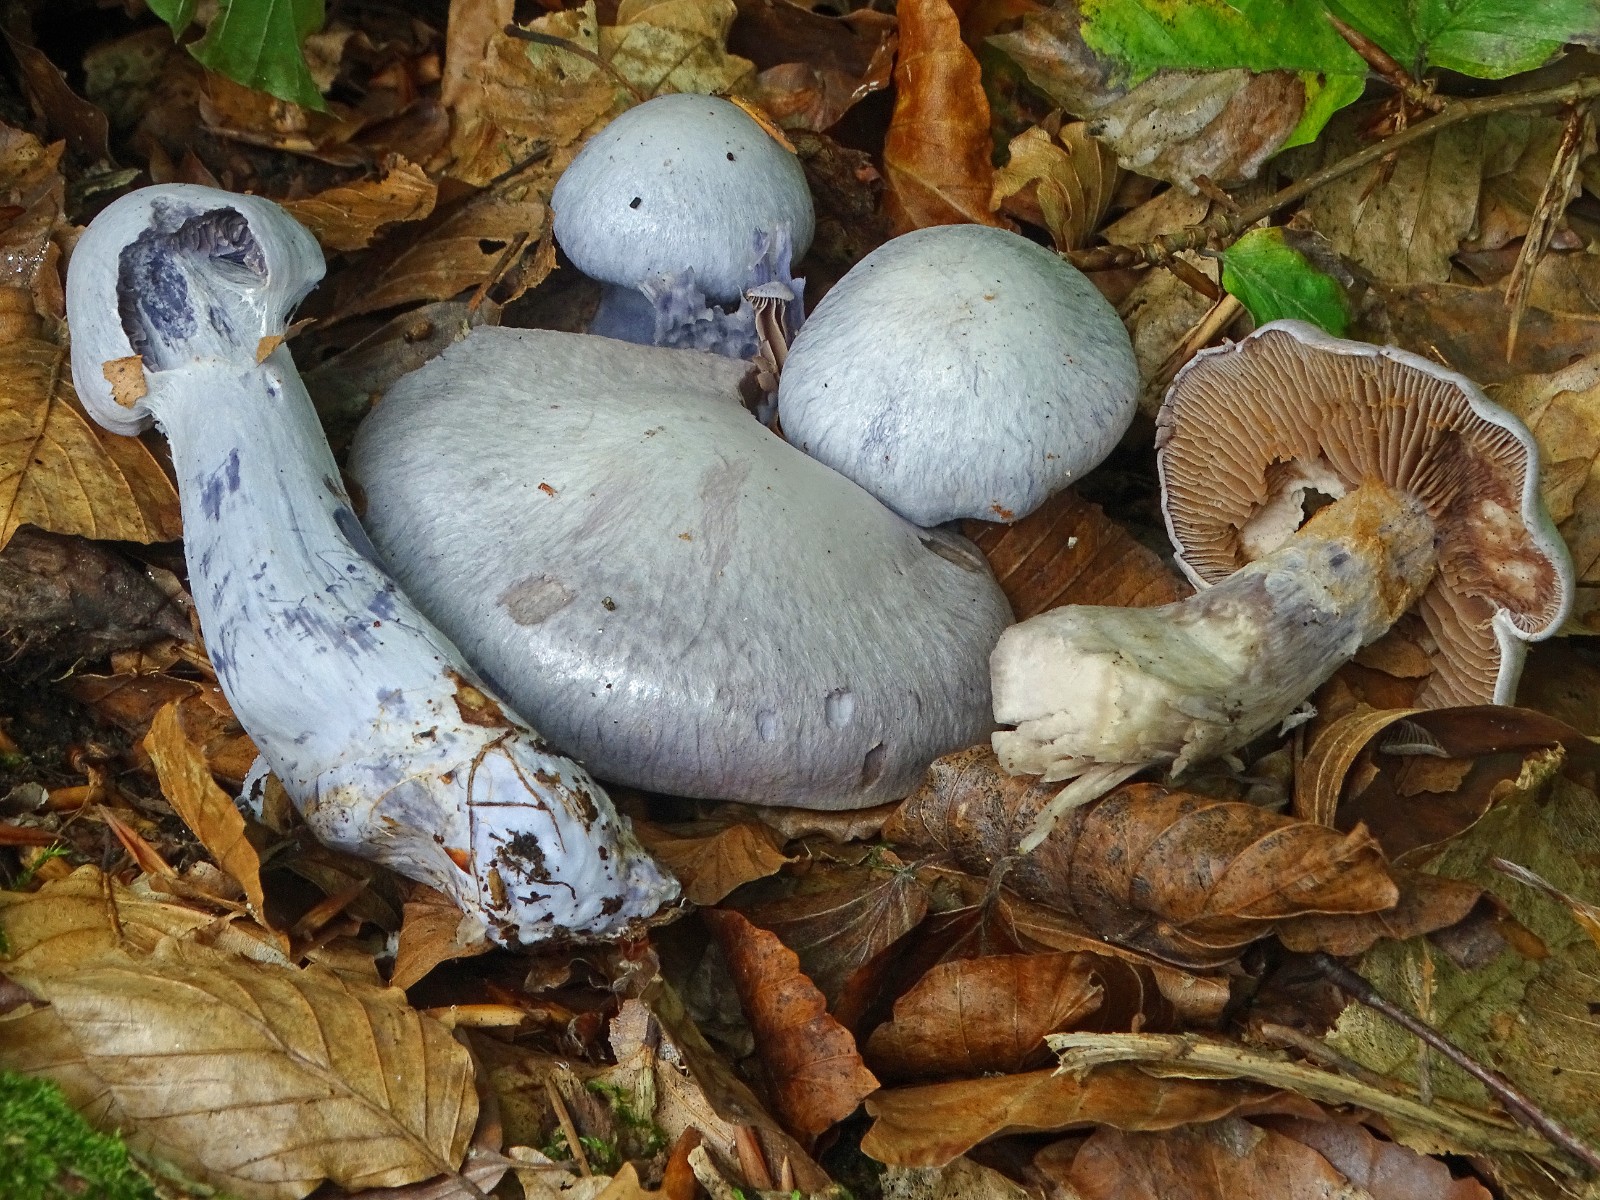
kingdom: Fungi
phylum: Basidiomycota
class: Agaricomycetes
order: Agaricales
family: Cortinariaceae
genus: Cortinarius
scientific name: Cortinarius alboviolaceus
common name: lysviolet slørhat
